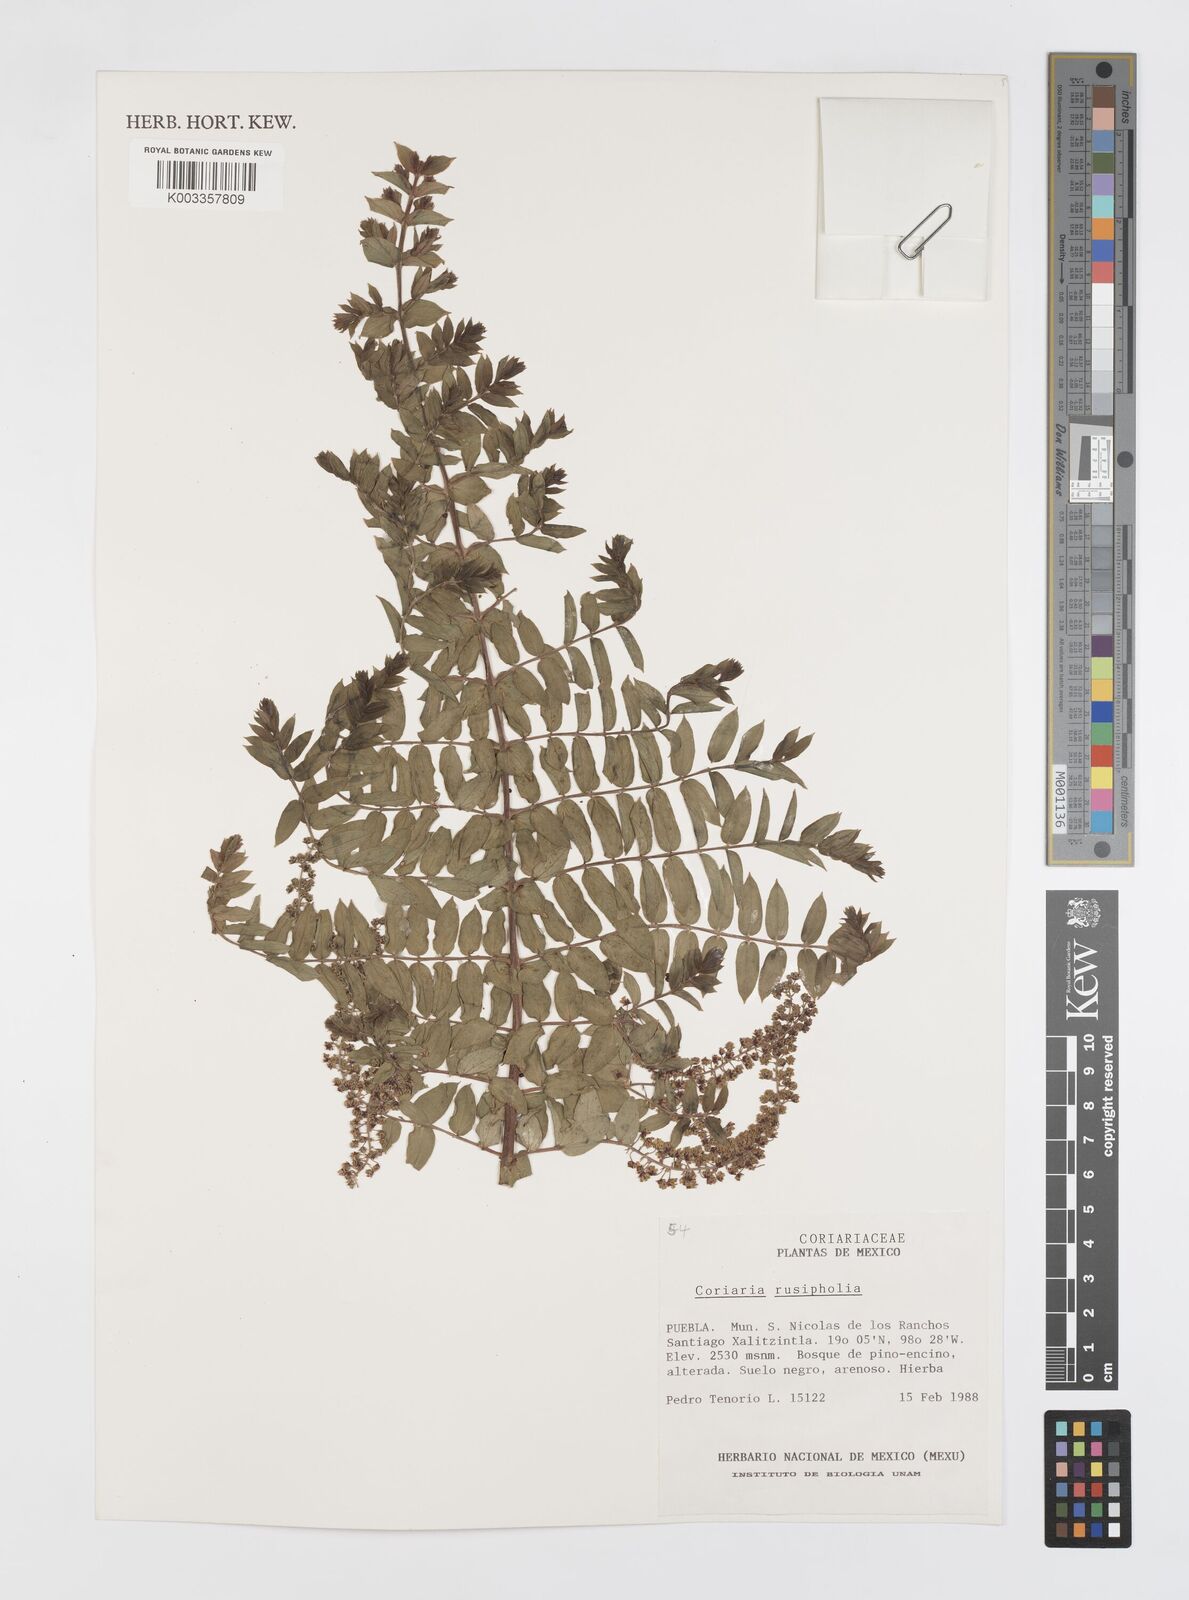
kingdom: Plantae
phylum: Tracheophyta
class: Magnoliopsida
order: Cucurbitales
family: Coriariaceae
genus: Coriaria
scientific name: Coriaria microphylla
